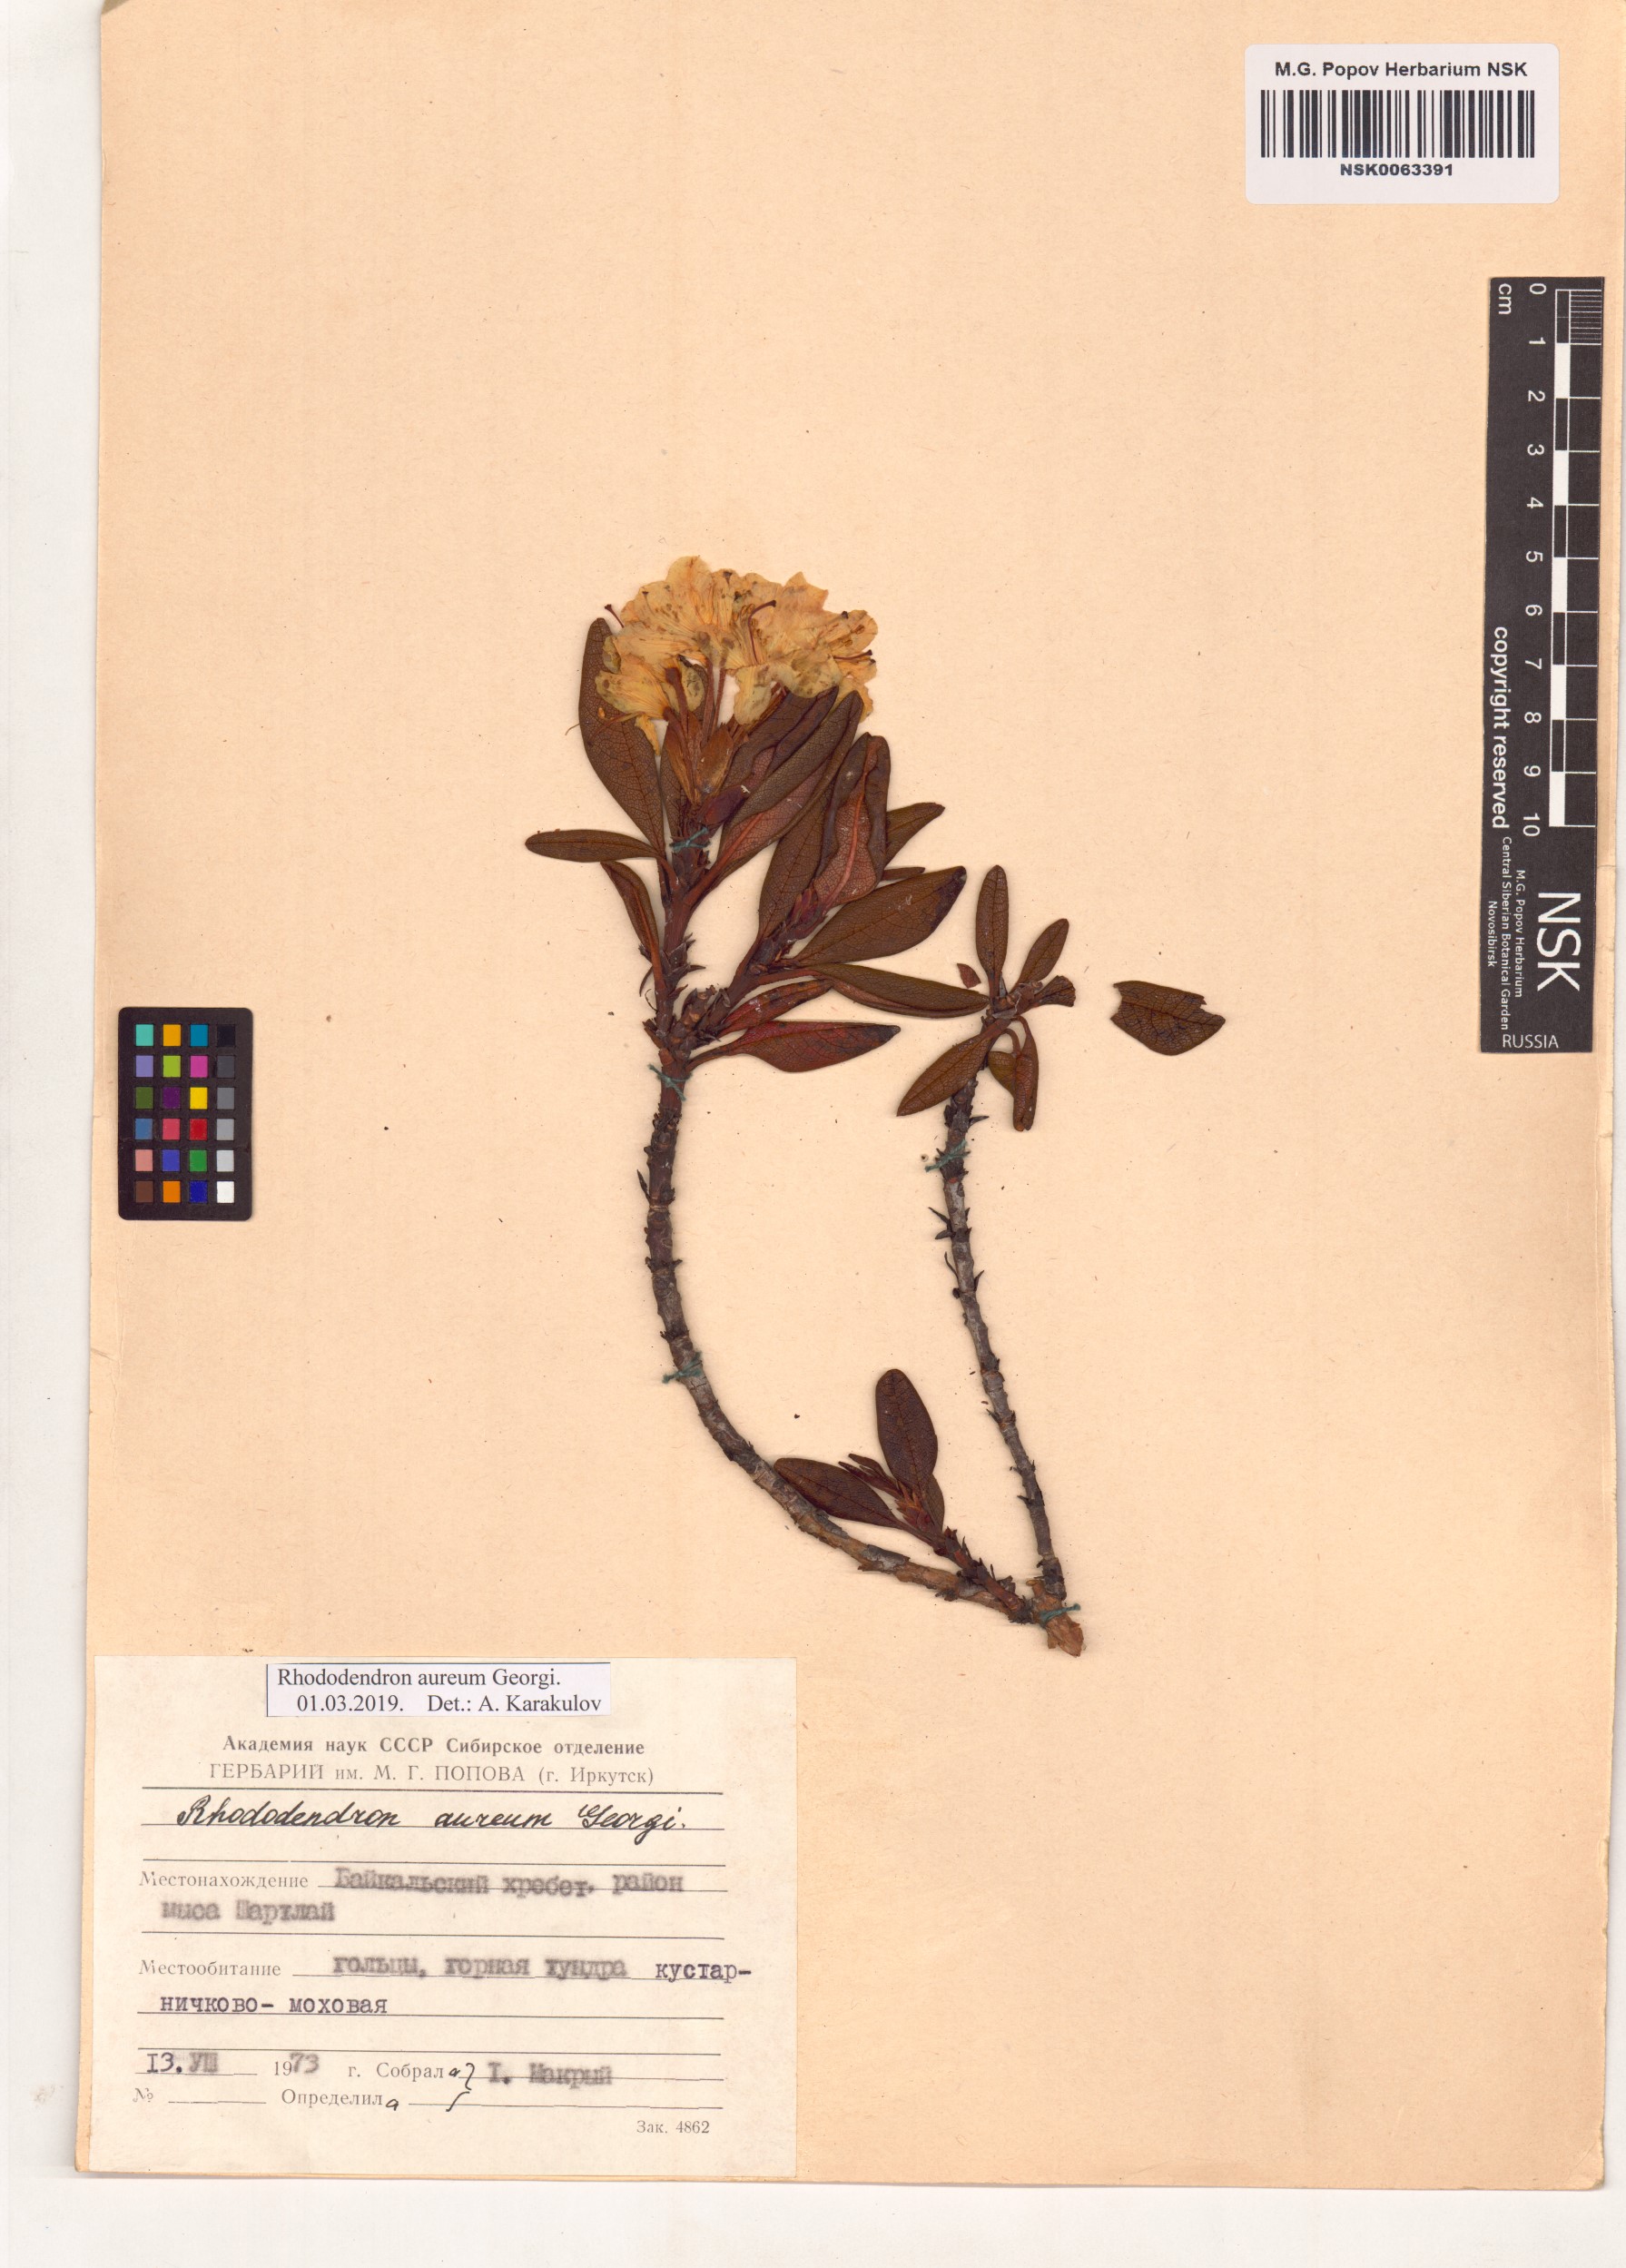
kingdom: Plantae
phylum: Tracheophyta
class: Magnoliopsida
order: Ericales
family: Ericaceae
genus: Rhododendron
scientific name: Rhododendron aureum
